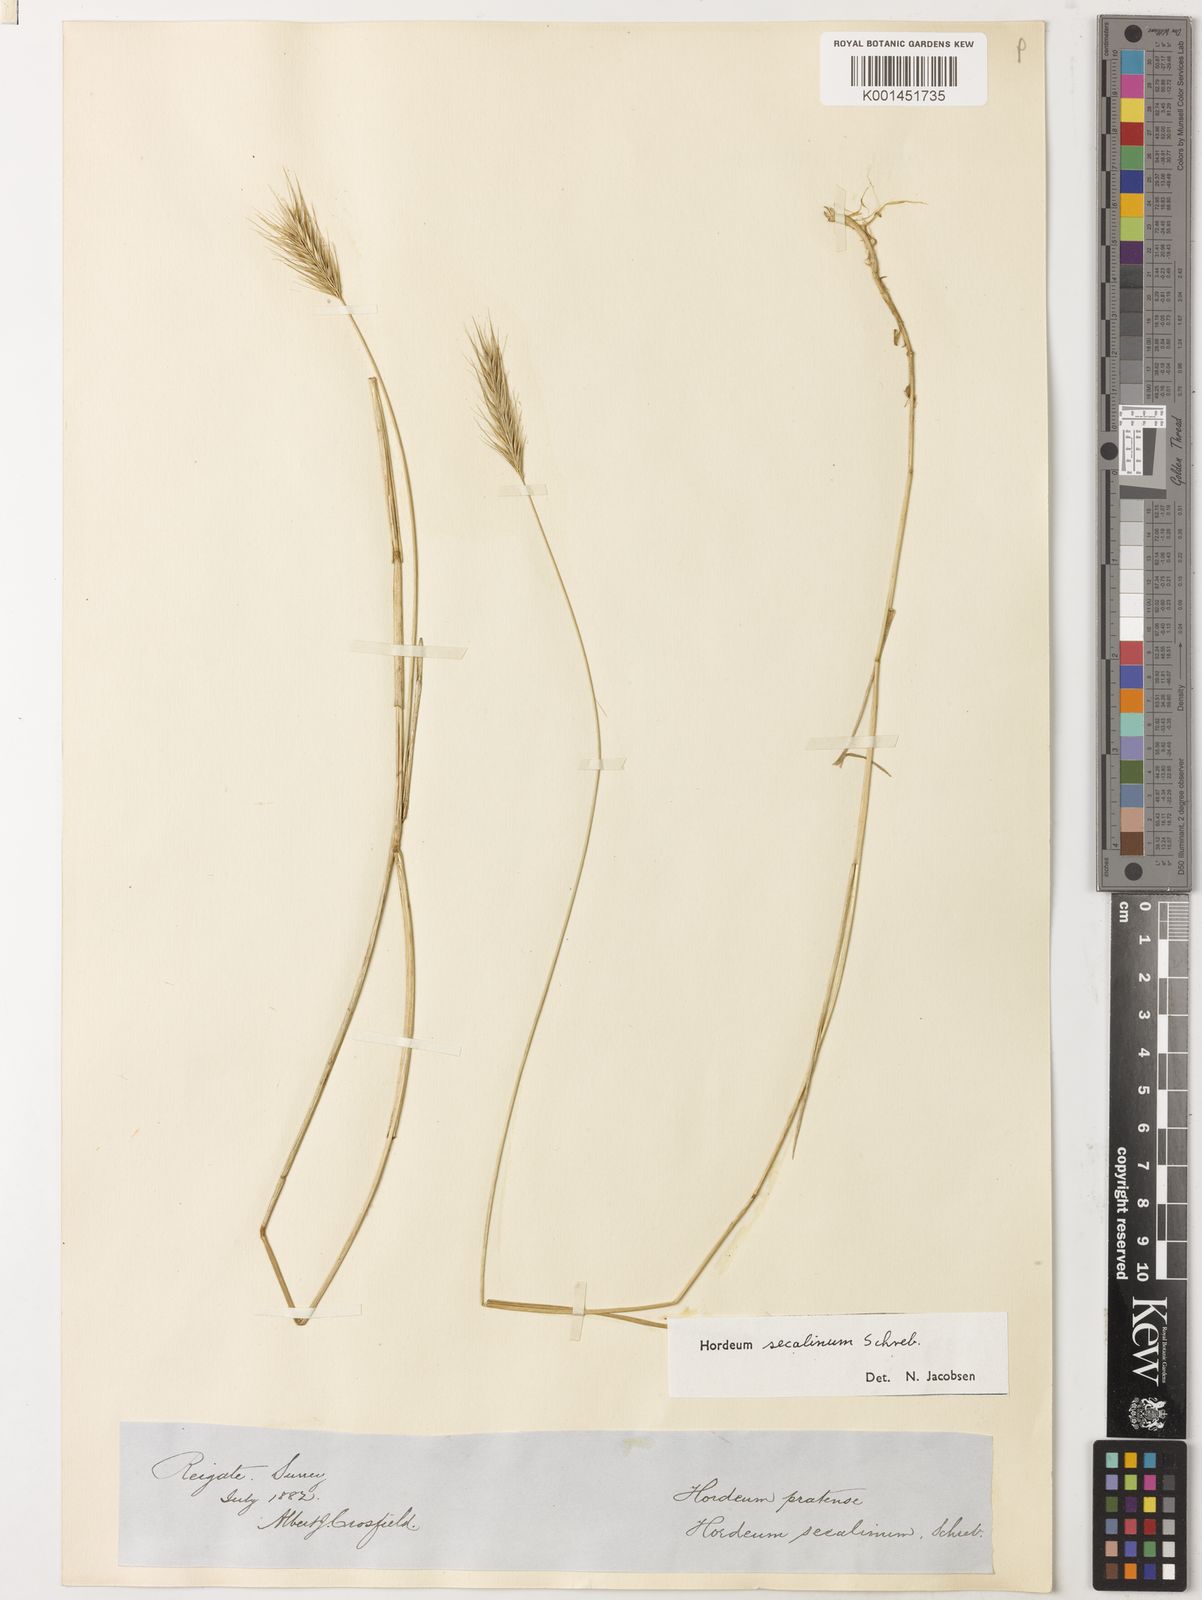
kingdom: Plantae
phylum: Tracheophyta
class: Liliopsida
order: Poales
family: Poaceae
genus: Hordeum
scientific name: Hordeum secalinum
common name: Meadow barley
